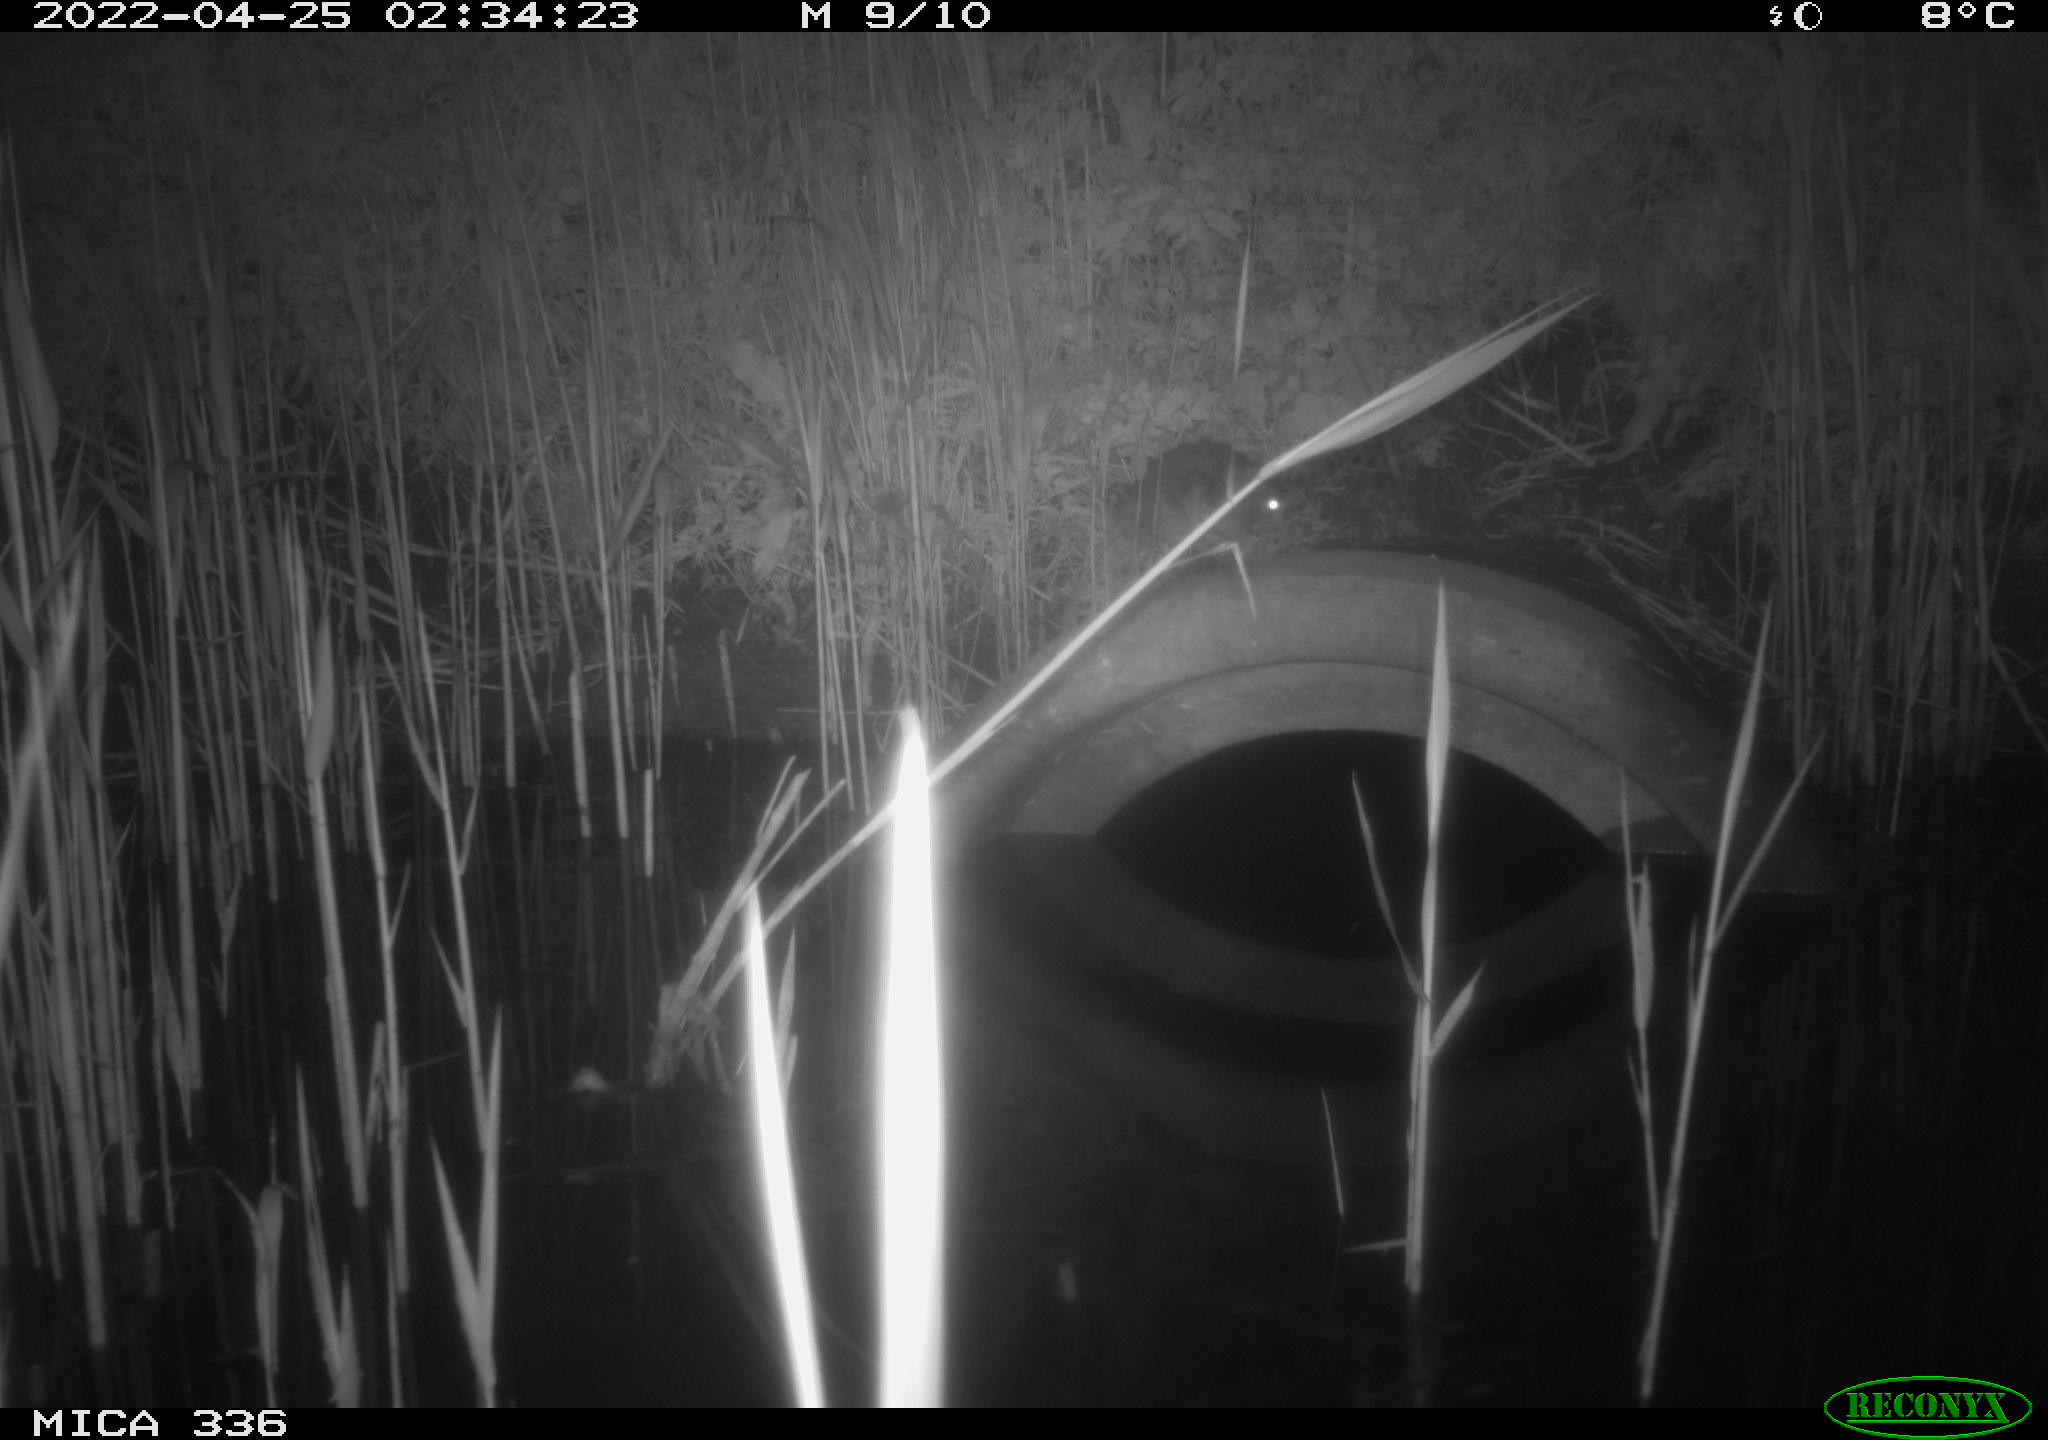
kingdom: Animalia
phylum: Chordata
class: Mammalia
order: Rodentia
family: Muridae
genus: Rattus
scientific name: Rattus norvegicus
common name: Brown rat
